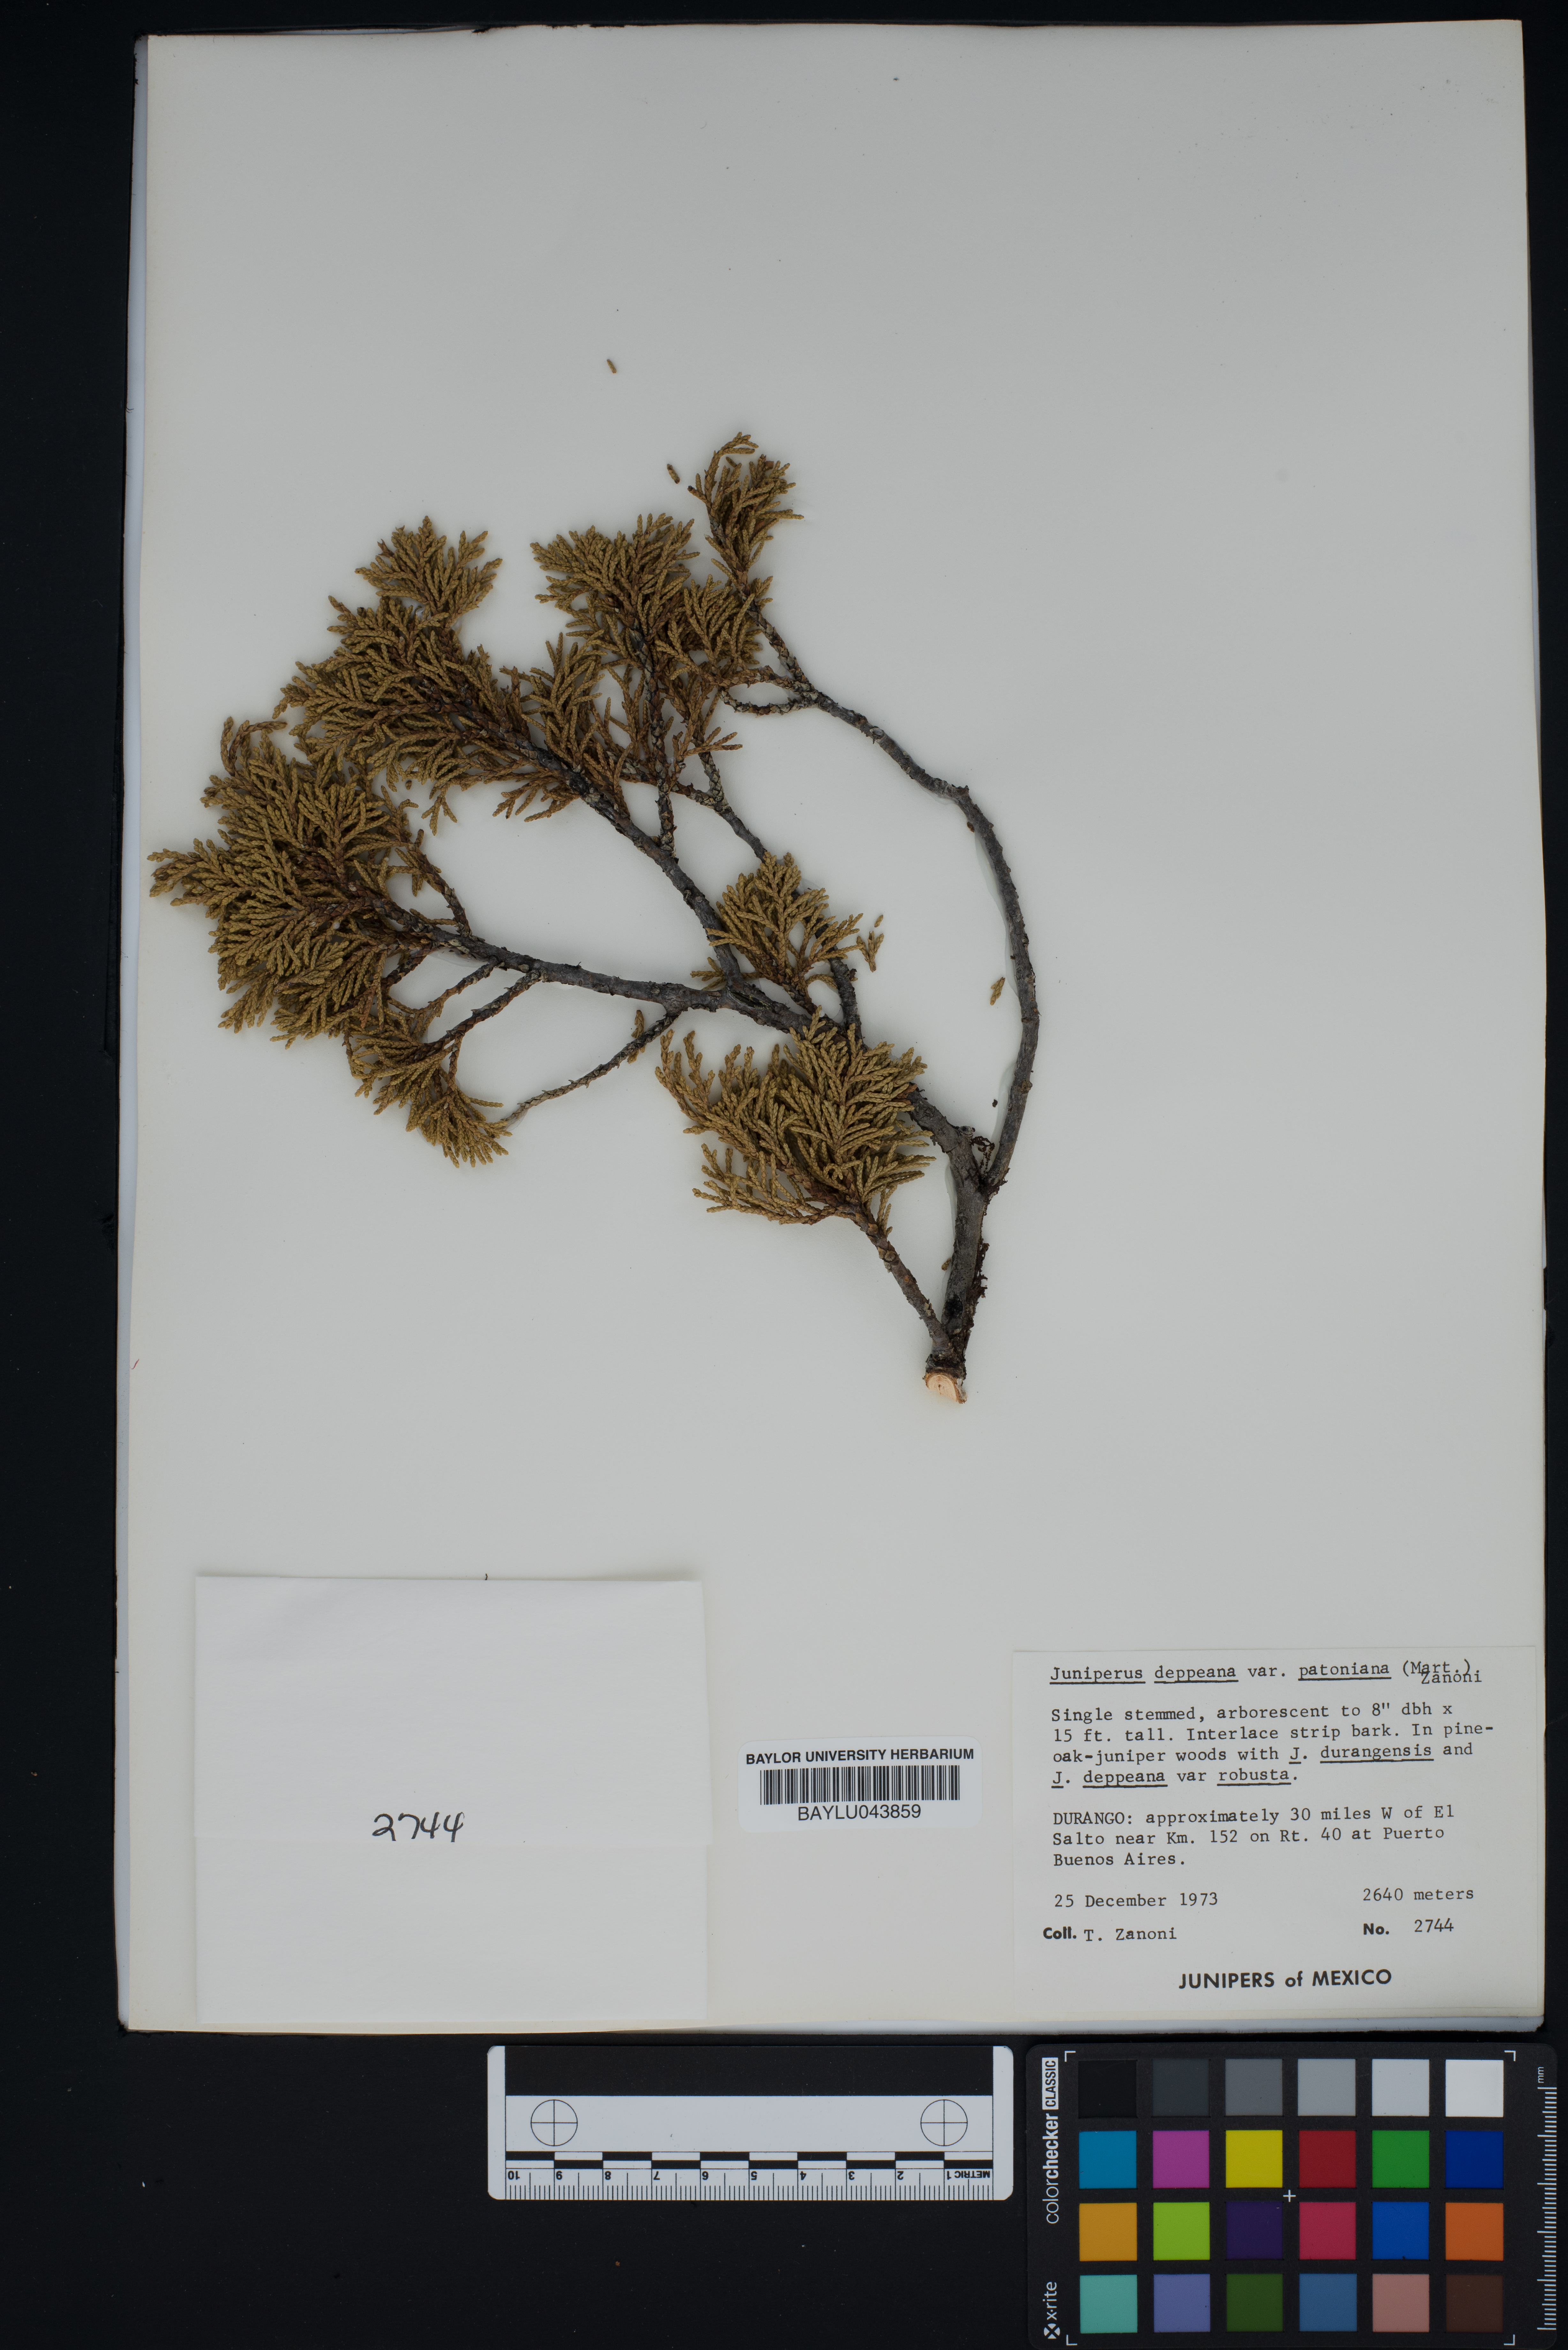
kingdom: Plantae
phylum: Tracheophyta
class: Pinopsida
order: Pinales
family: Cupressaceae
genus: Juniperus
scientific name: Juniperus deppeana
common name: Alligator juniper
